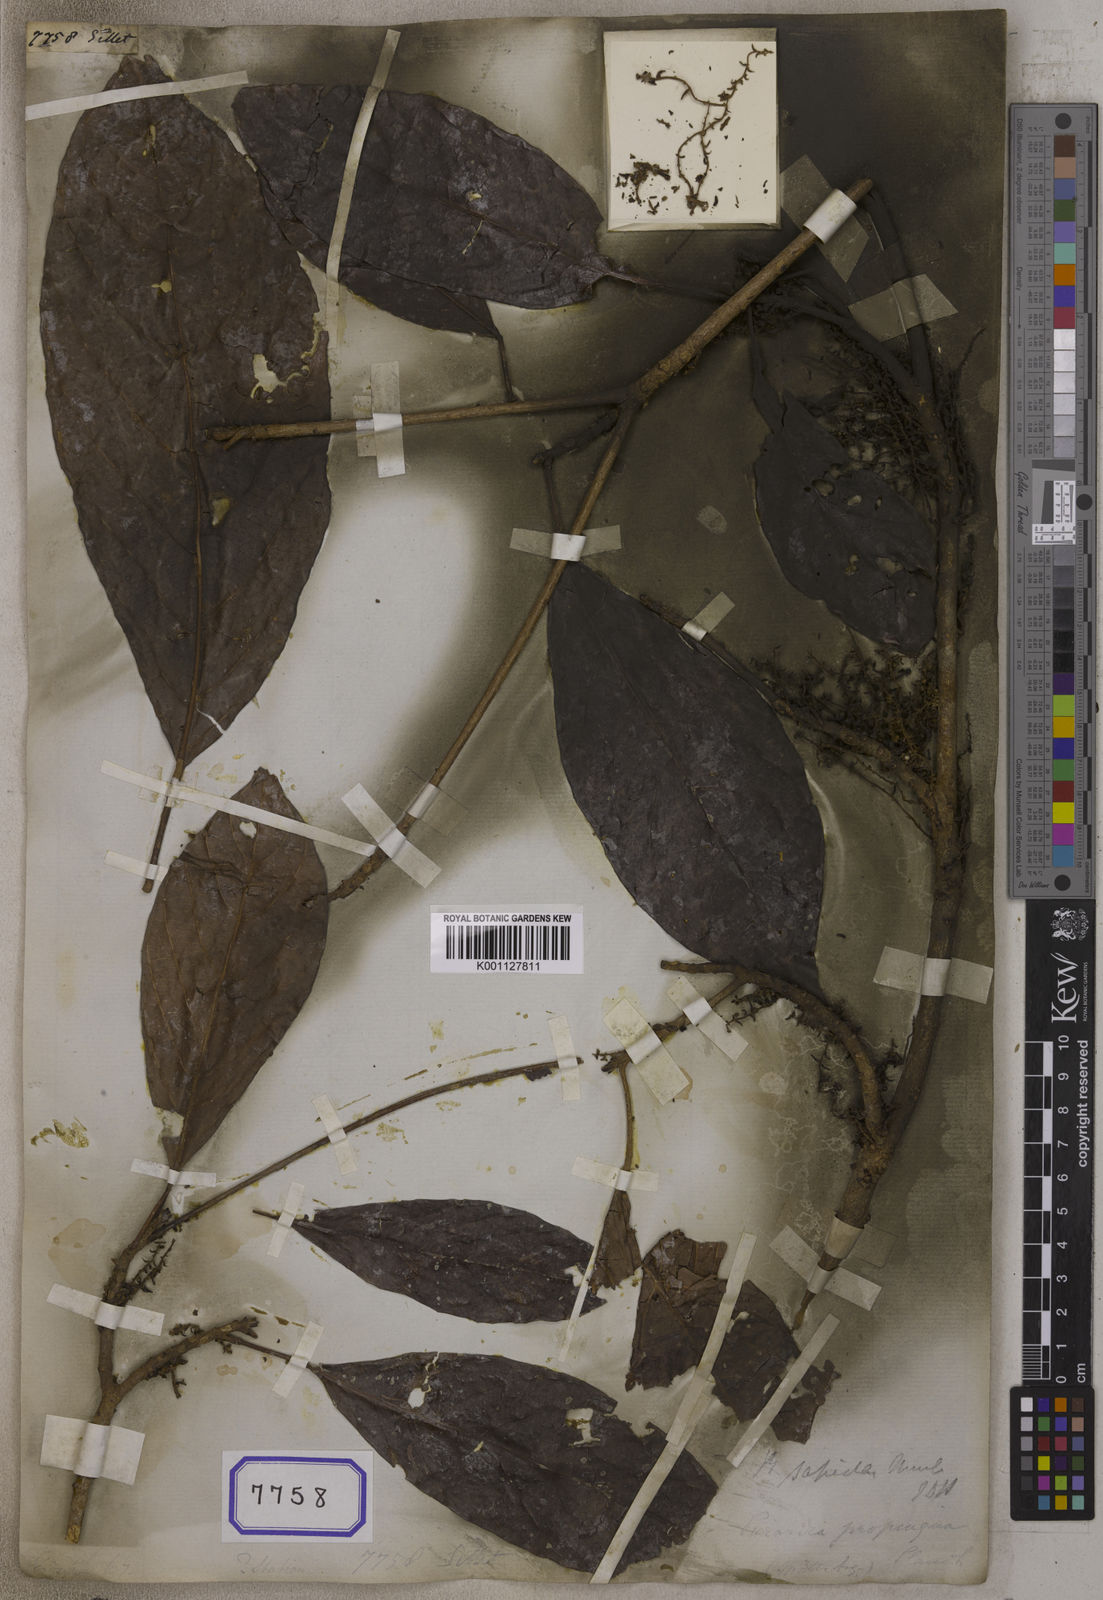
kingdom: Plantae
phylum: Tracheophyta
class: Magnoliopsida
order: Malpighiales
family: Euphorbiaceae
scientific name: Euphorbiaceae
